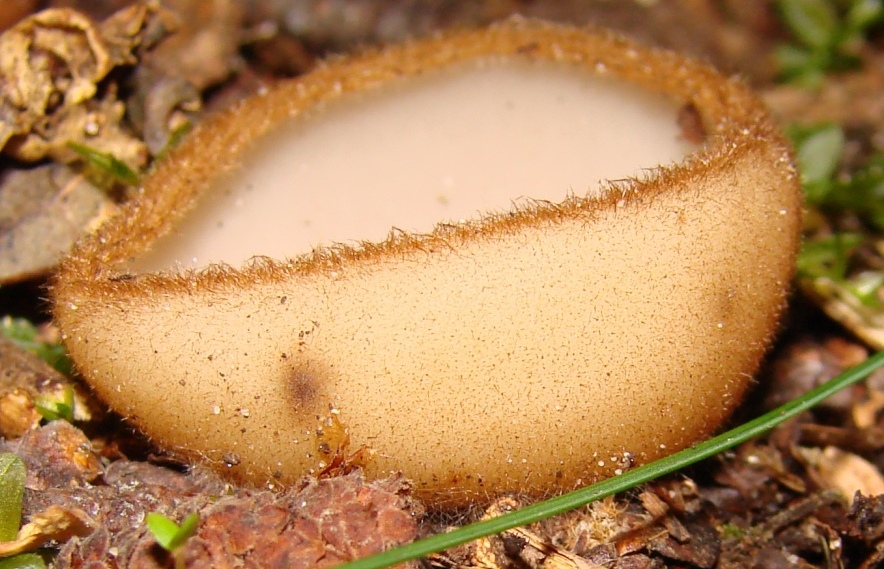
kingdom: Fungi
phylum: Ascomycota
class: Pezizomycetes
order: Pezizales
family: Pyronemataceae
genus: Humaria
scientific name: Humaria hemisphaerica
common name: halvkugleformet børstebæger
